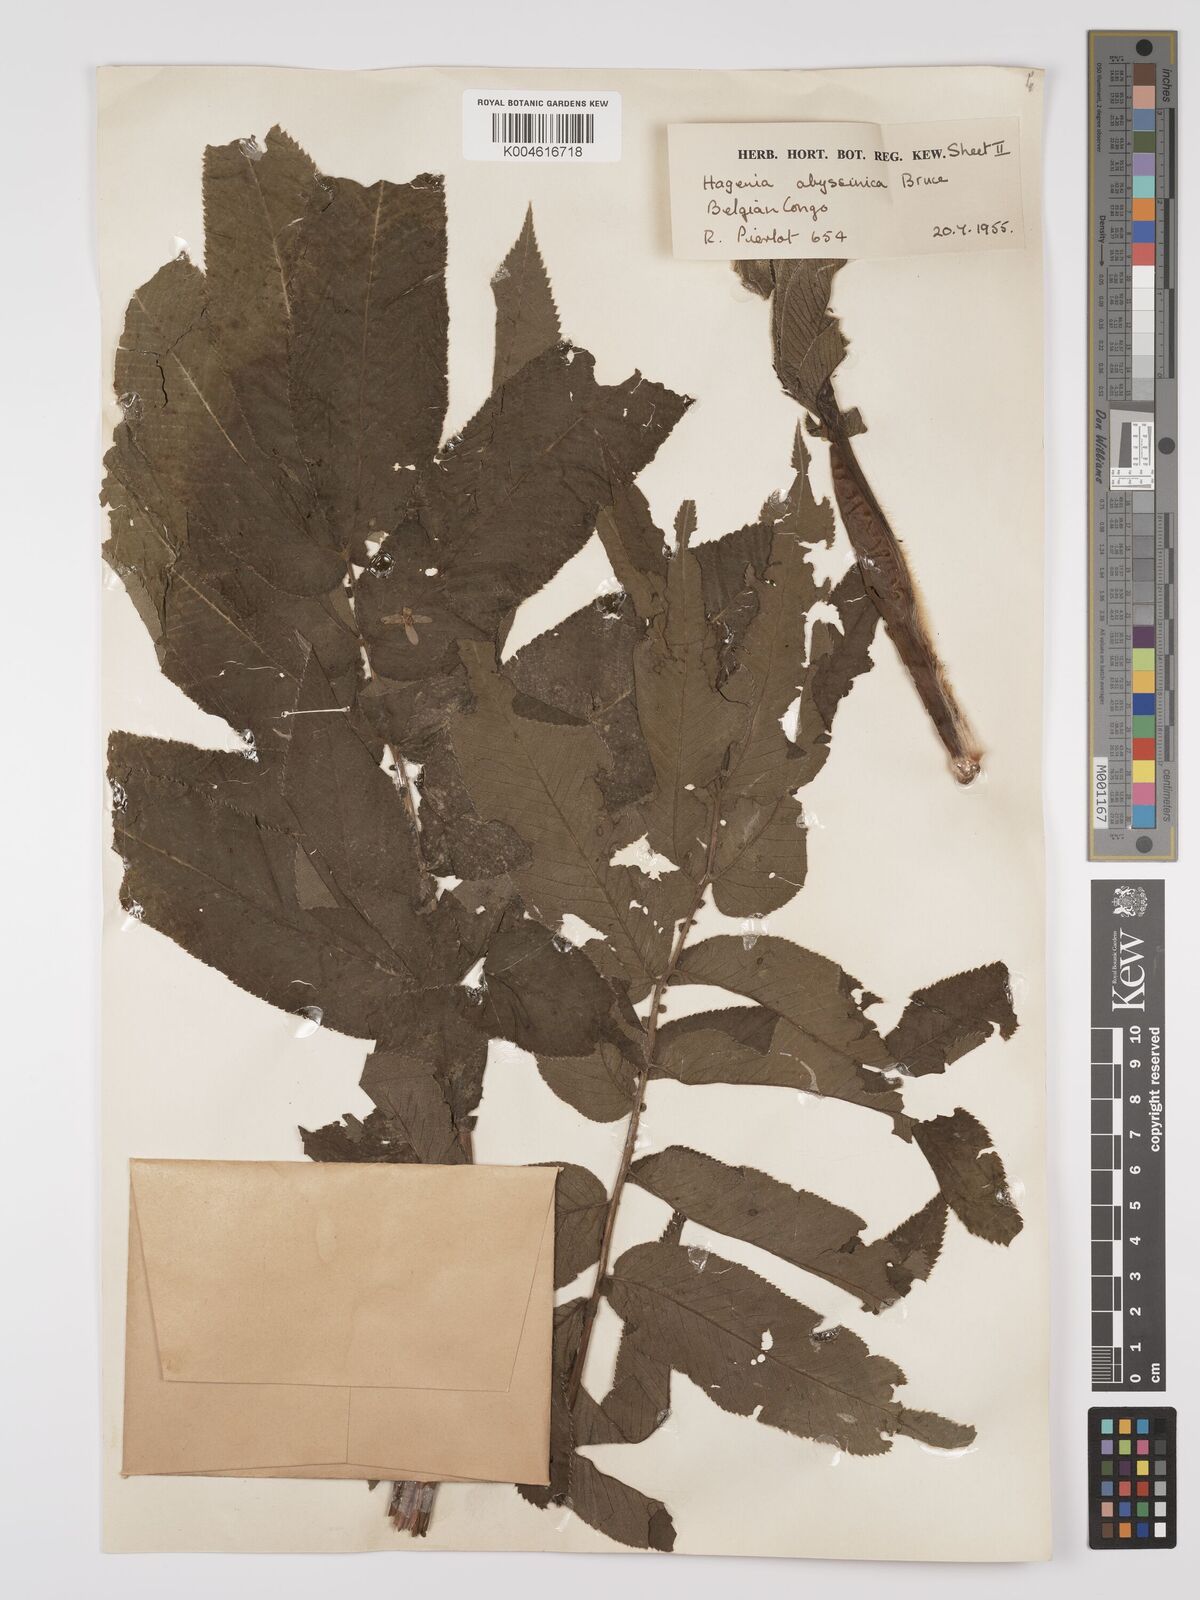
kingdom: Plantae
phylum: Tracheophyta
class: Magnoliopsida
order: Rosales
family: Rosaceae
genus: Hagenia
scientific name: Hagenia abyssinica
